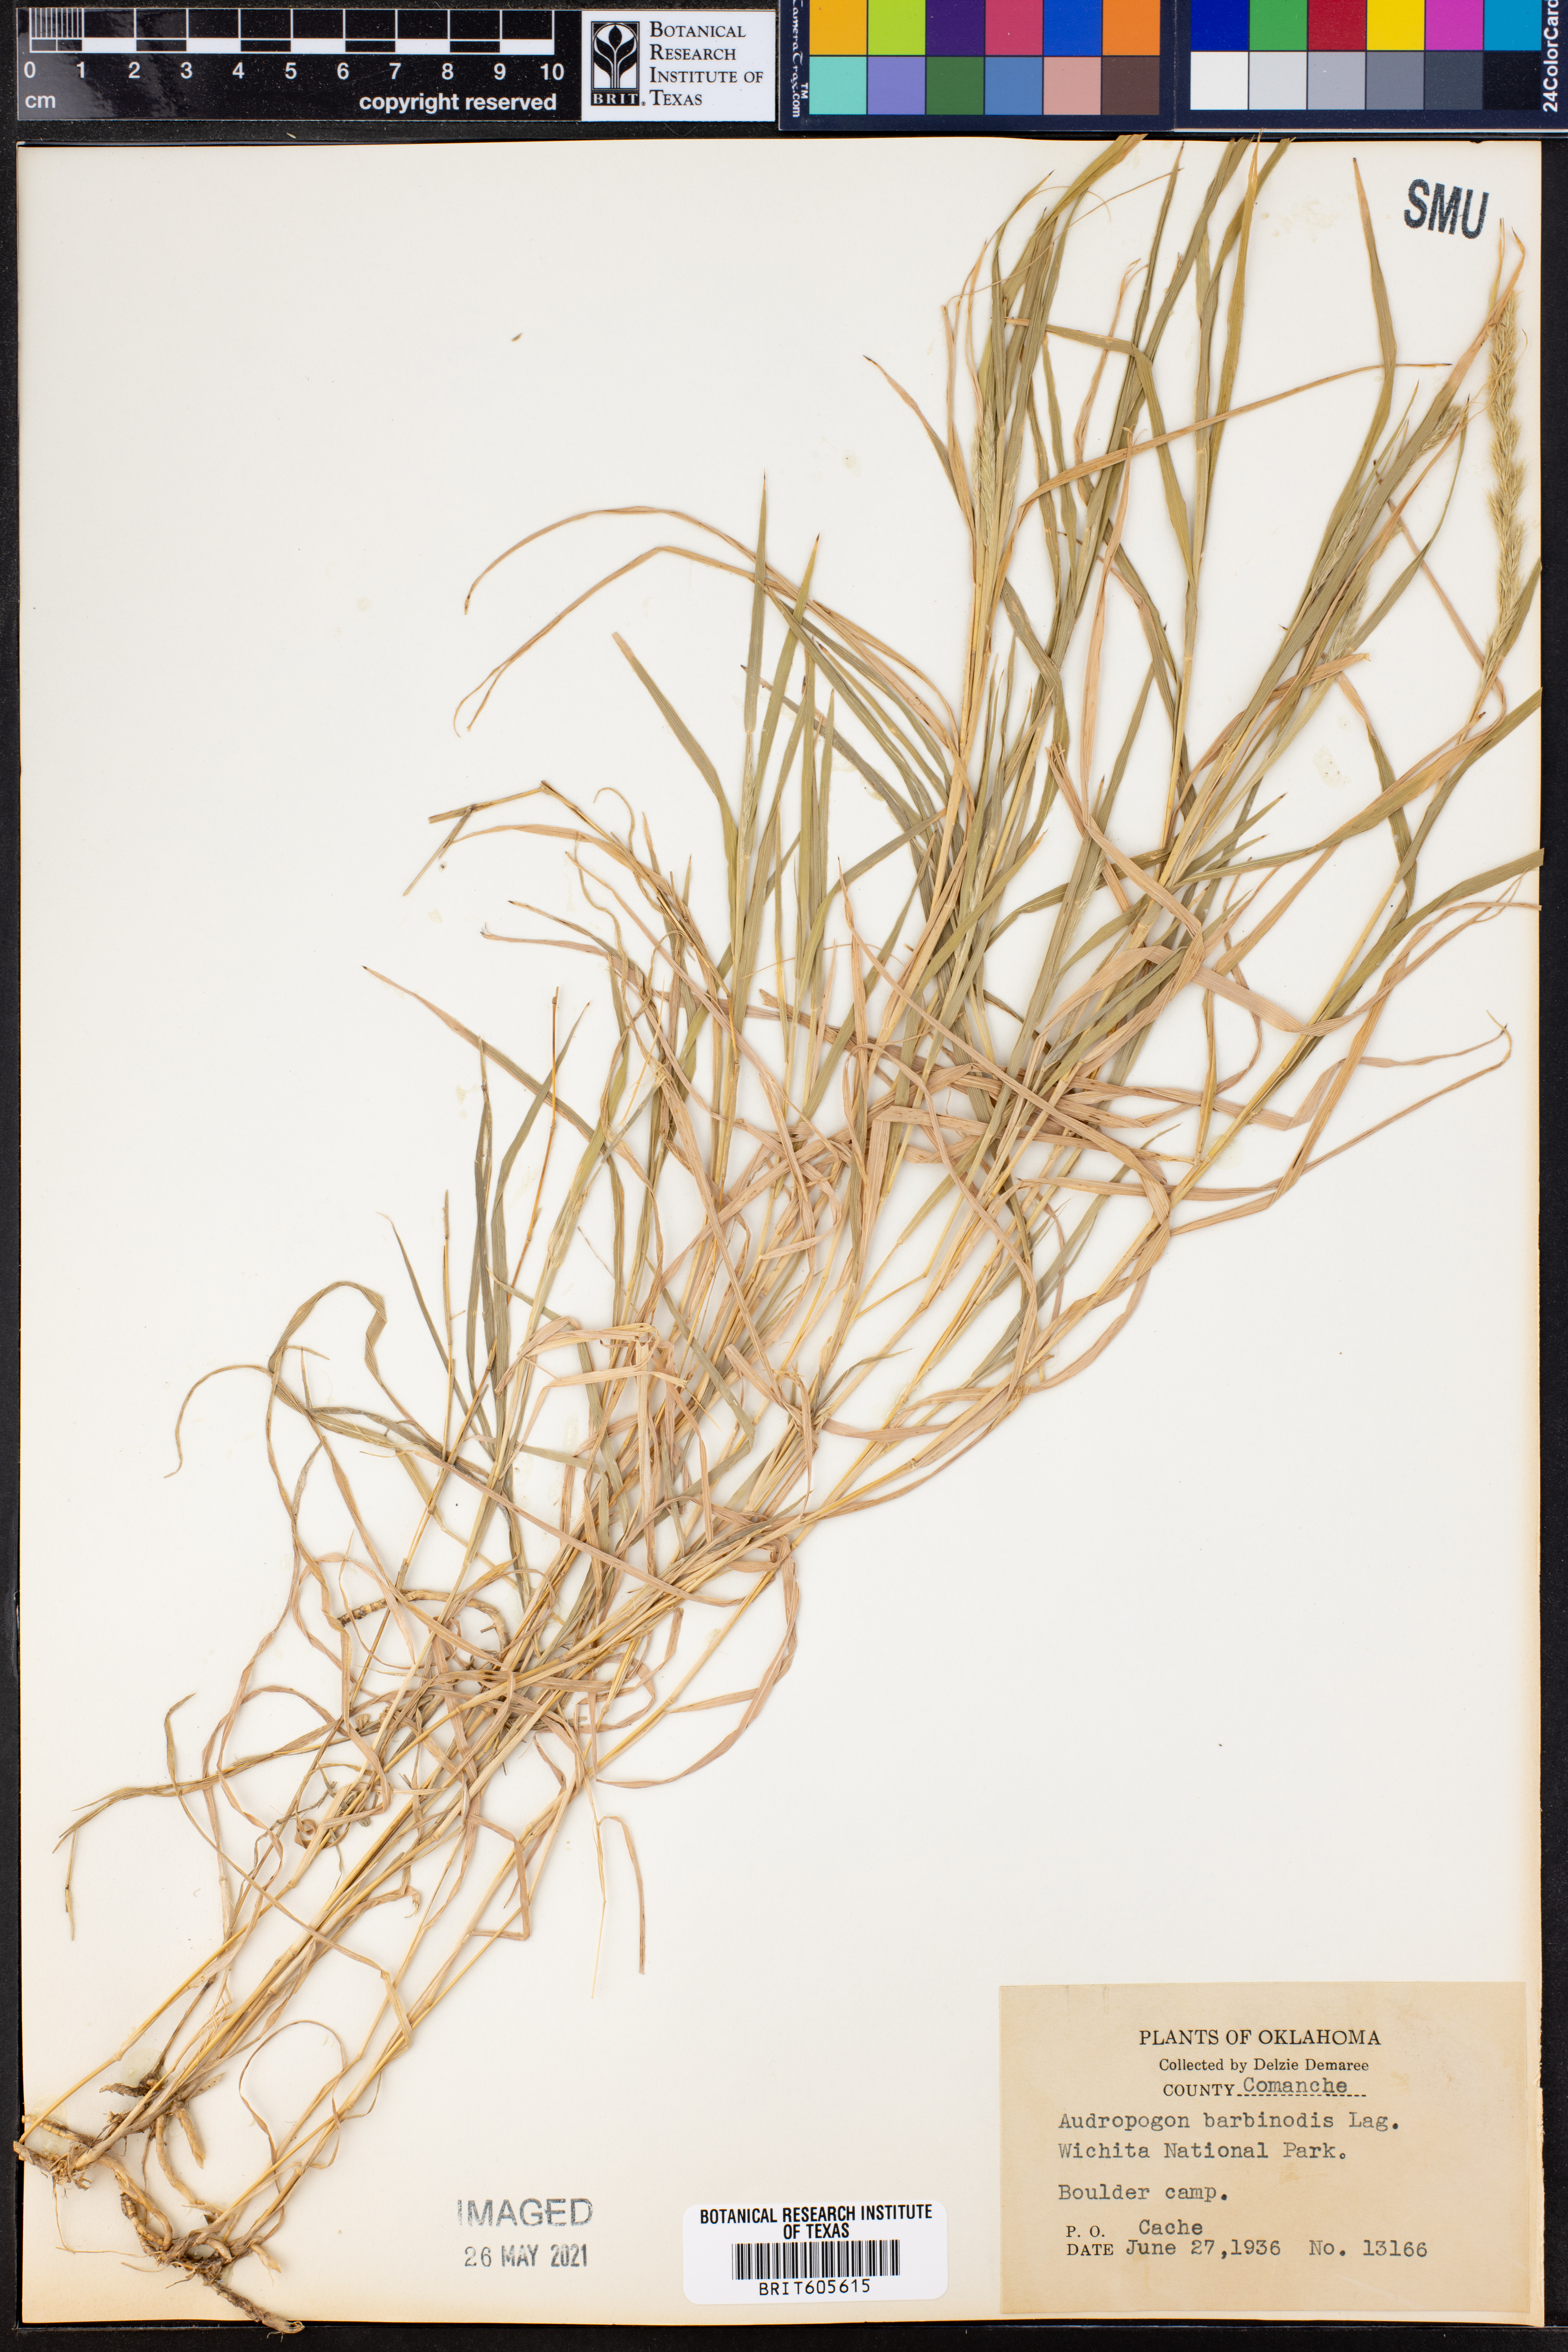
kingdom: Plantae
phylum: Tracheophyta
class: Liliopsida
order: Poales
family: Poaceae
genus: Bothriochloa
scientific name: Bothriochloa barbinodis
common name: Cane bluestem
